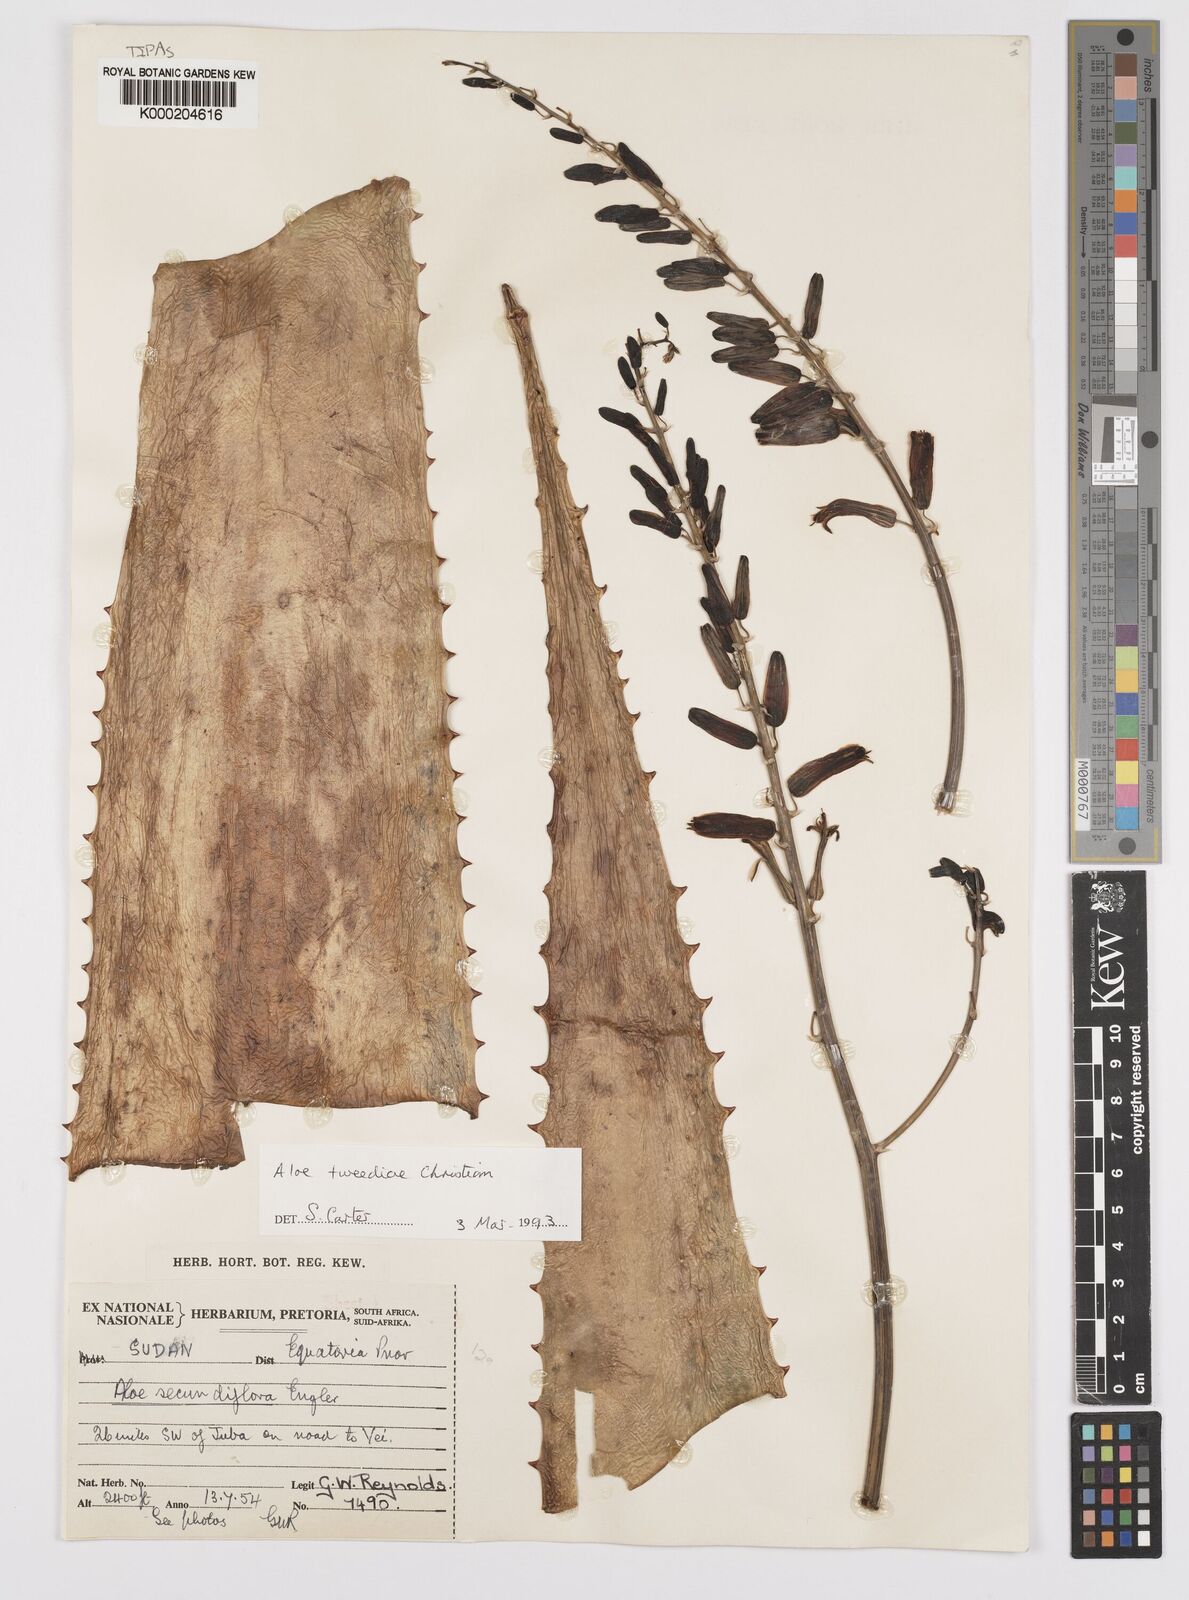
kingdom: Plantae
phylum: Tracheophyta
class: Liliopsida
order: Asparagales
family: Asphodelaceae
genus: Aloe
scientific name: Aloe
